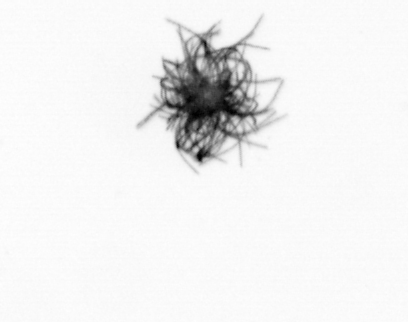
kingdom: Bacteria
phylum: Cyanobacteria
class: Cyanobacteriia
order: Cyanobacteriales
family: Microcoleaceae
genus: Trichodesmium
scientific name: Trichodesmium
